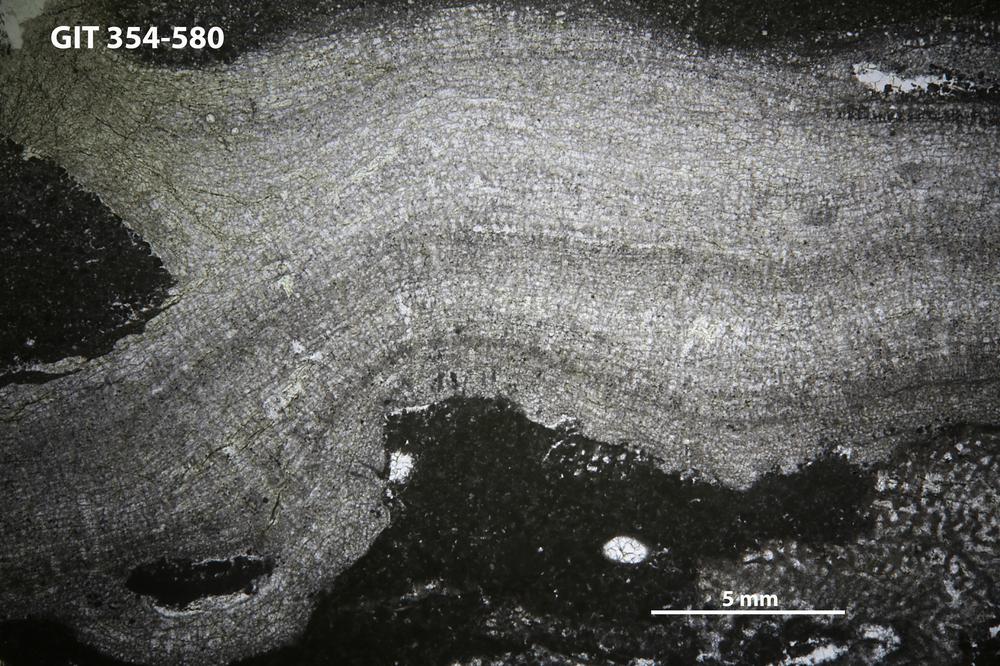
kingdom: Animalia
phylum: Porifera
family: Pseudolabechiidae
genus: Vikingia
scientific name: Vikingia
